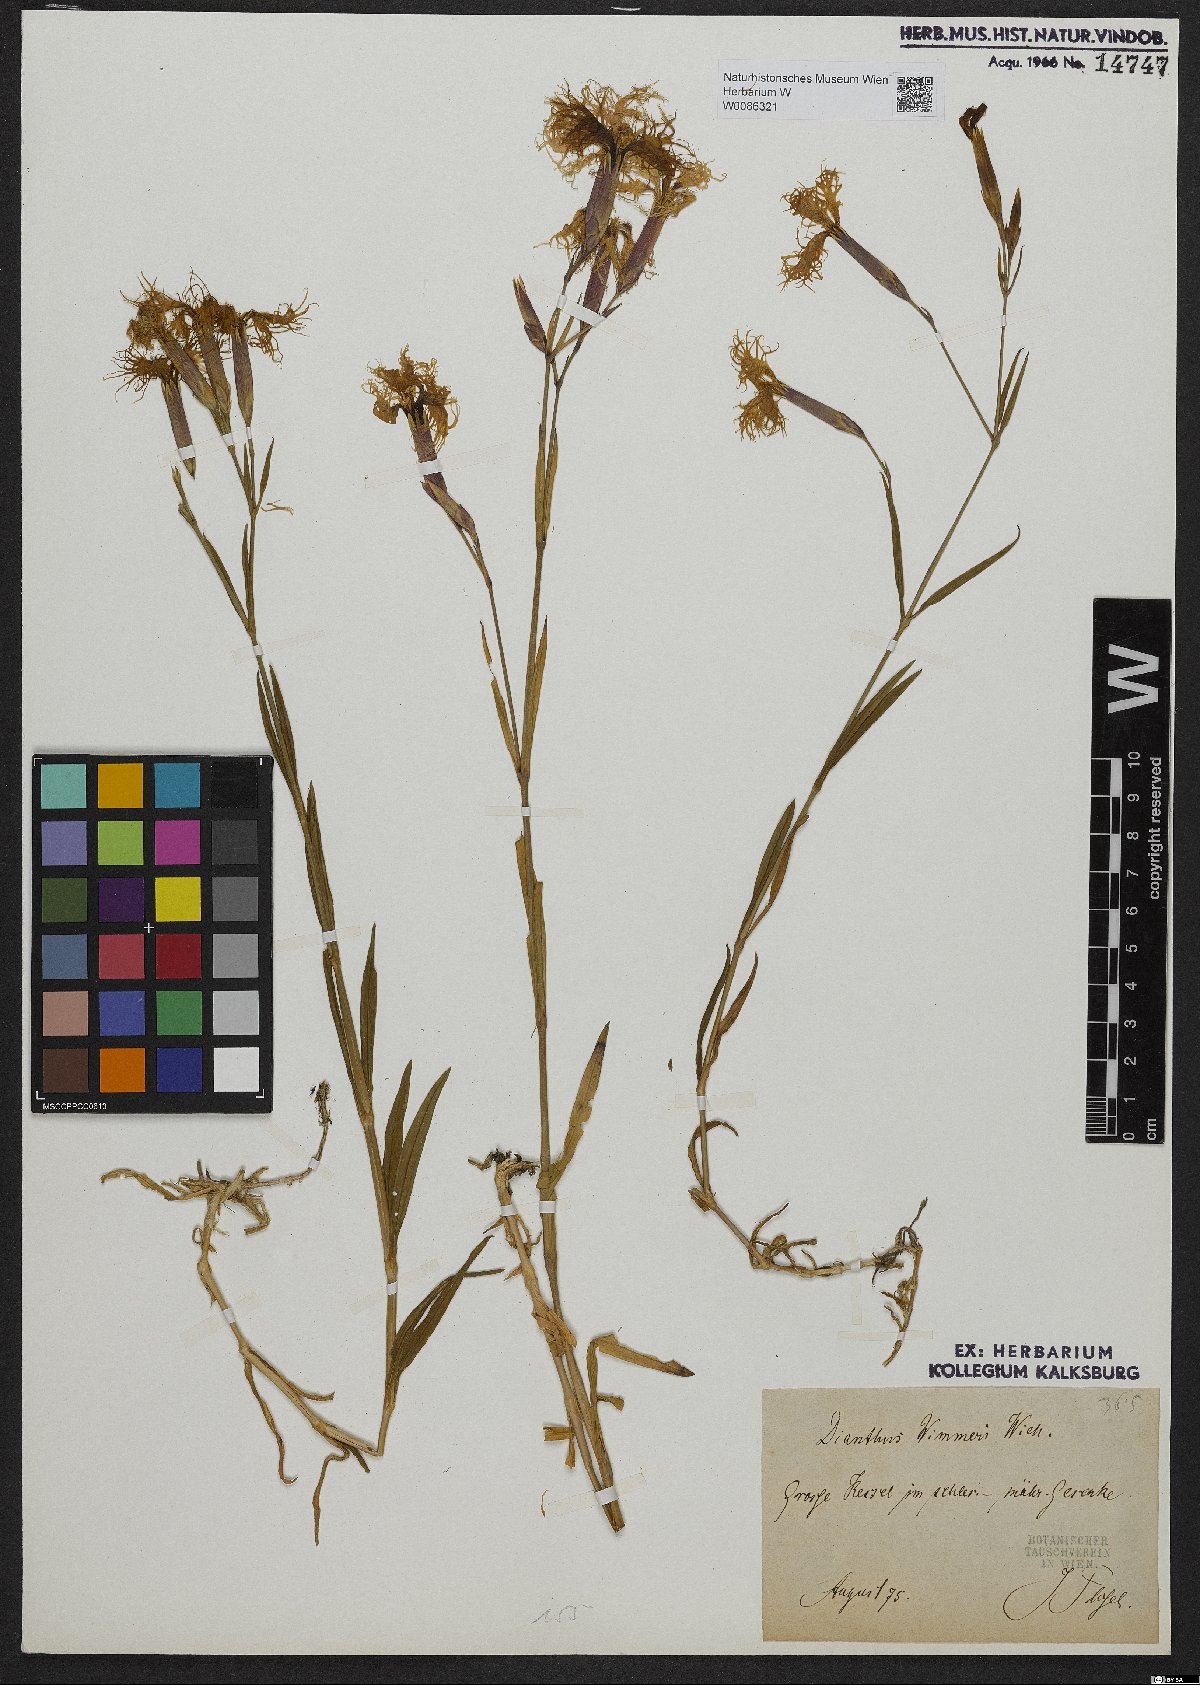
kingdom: Plantae
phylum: Tracheophyta
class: Magnoliopsida
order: Caryophyllales
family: Caryophyllaceae
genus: Dianthus
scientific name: Dianthus superbus
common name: Fringed pink
